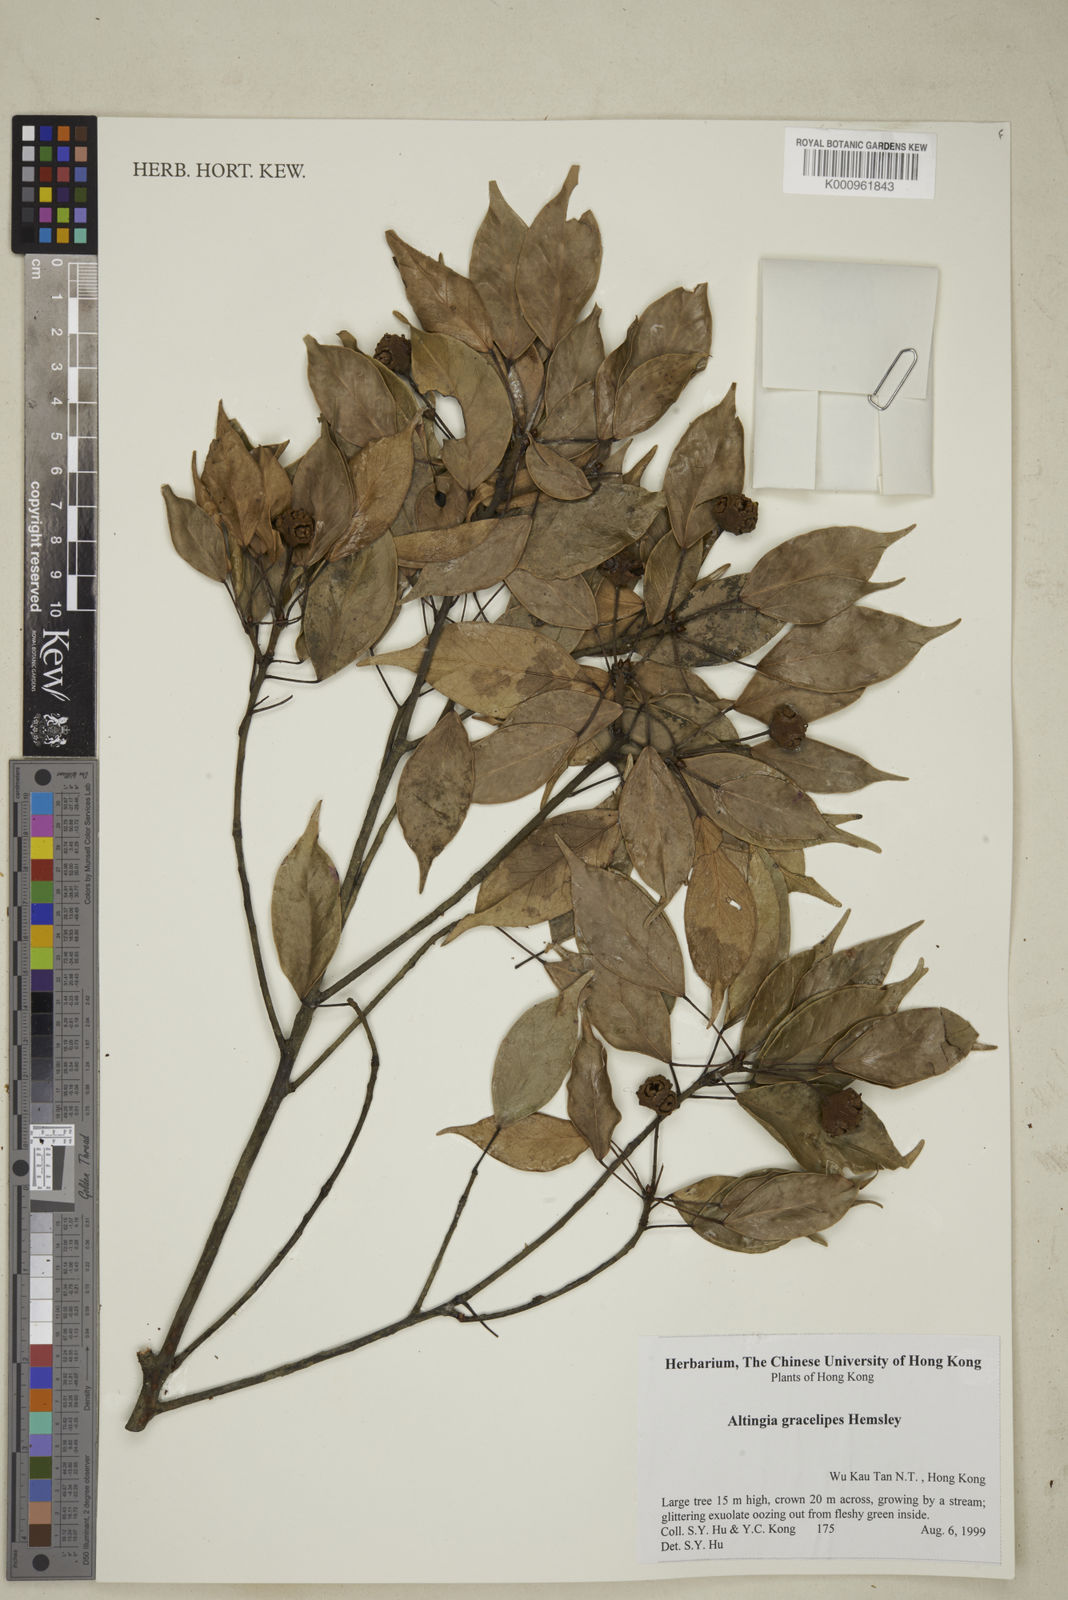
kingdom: Plantae
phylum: Tracheophyta
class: Magnoliopsida
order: Saxifragales
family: Altingiaceae
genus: Liquidambar
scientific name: Liquidambar gracilipes
